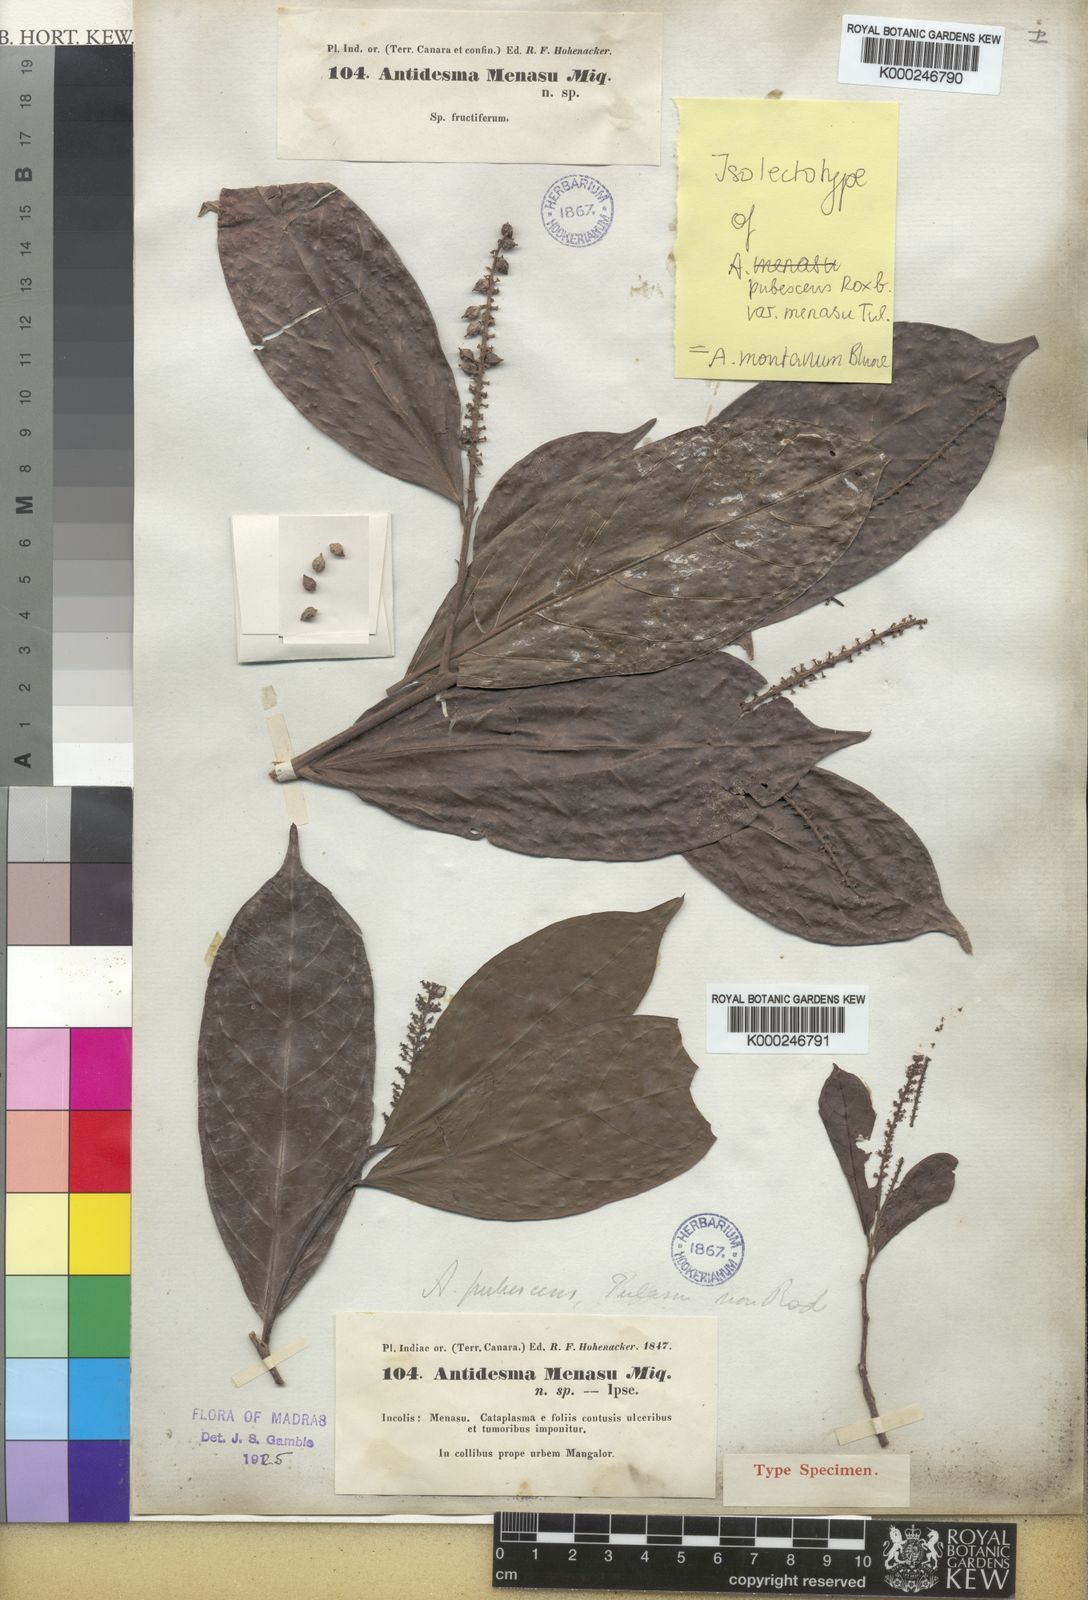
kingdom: Plantae
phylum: Tracheophyta
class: Magnoliopsida
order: Malpighiales
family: Phyllanthaceae
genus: Antidesma
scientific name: Antidesma montanum
